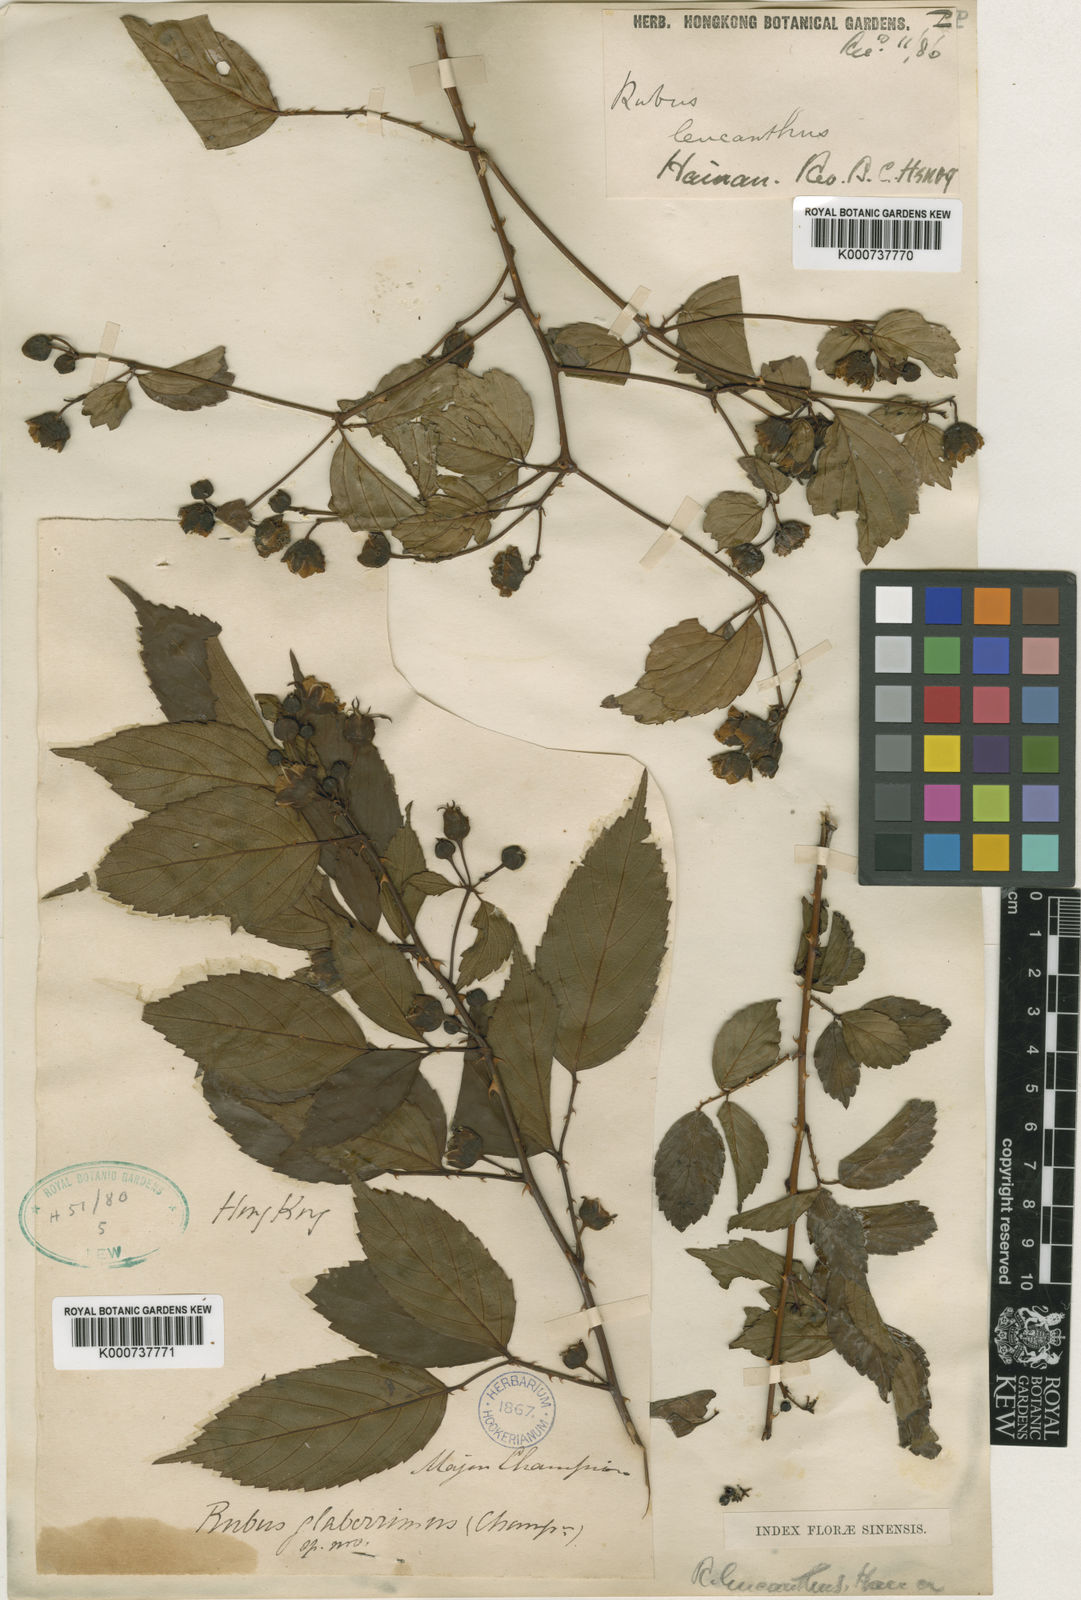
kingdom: Plantae
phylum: Tracheophyta
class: Magnoliopsida
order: Rosales
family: Rosaceae
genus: Rubus
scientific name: Rubus leucanthus
